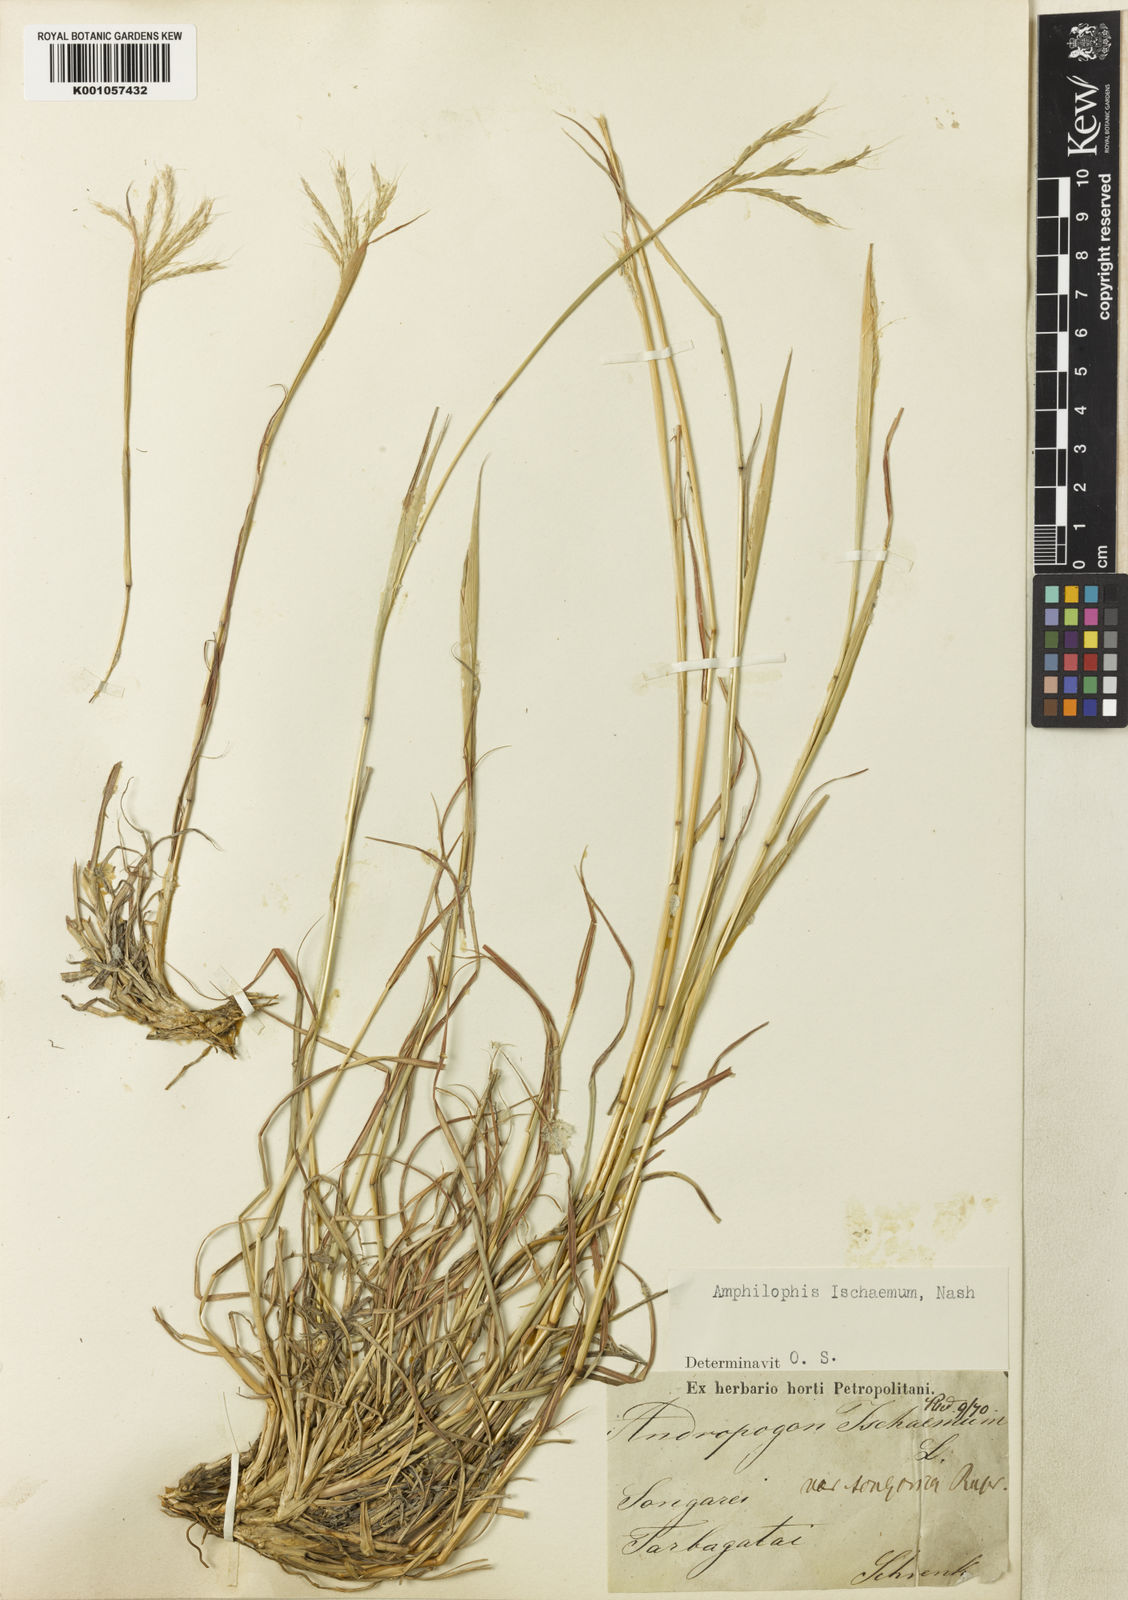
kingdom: Plantae
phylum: Tracheophyta
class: Liliopsida
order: Poales
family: Poaceae
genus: Bothriochloa
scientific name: Bothriochloa ischaemum
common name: Yellow bluestem
